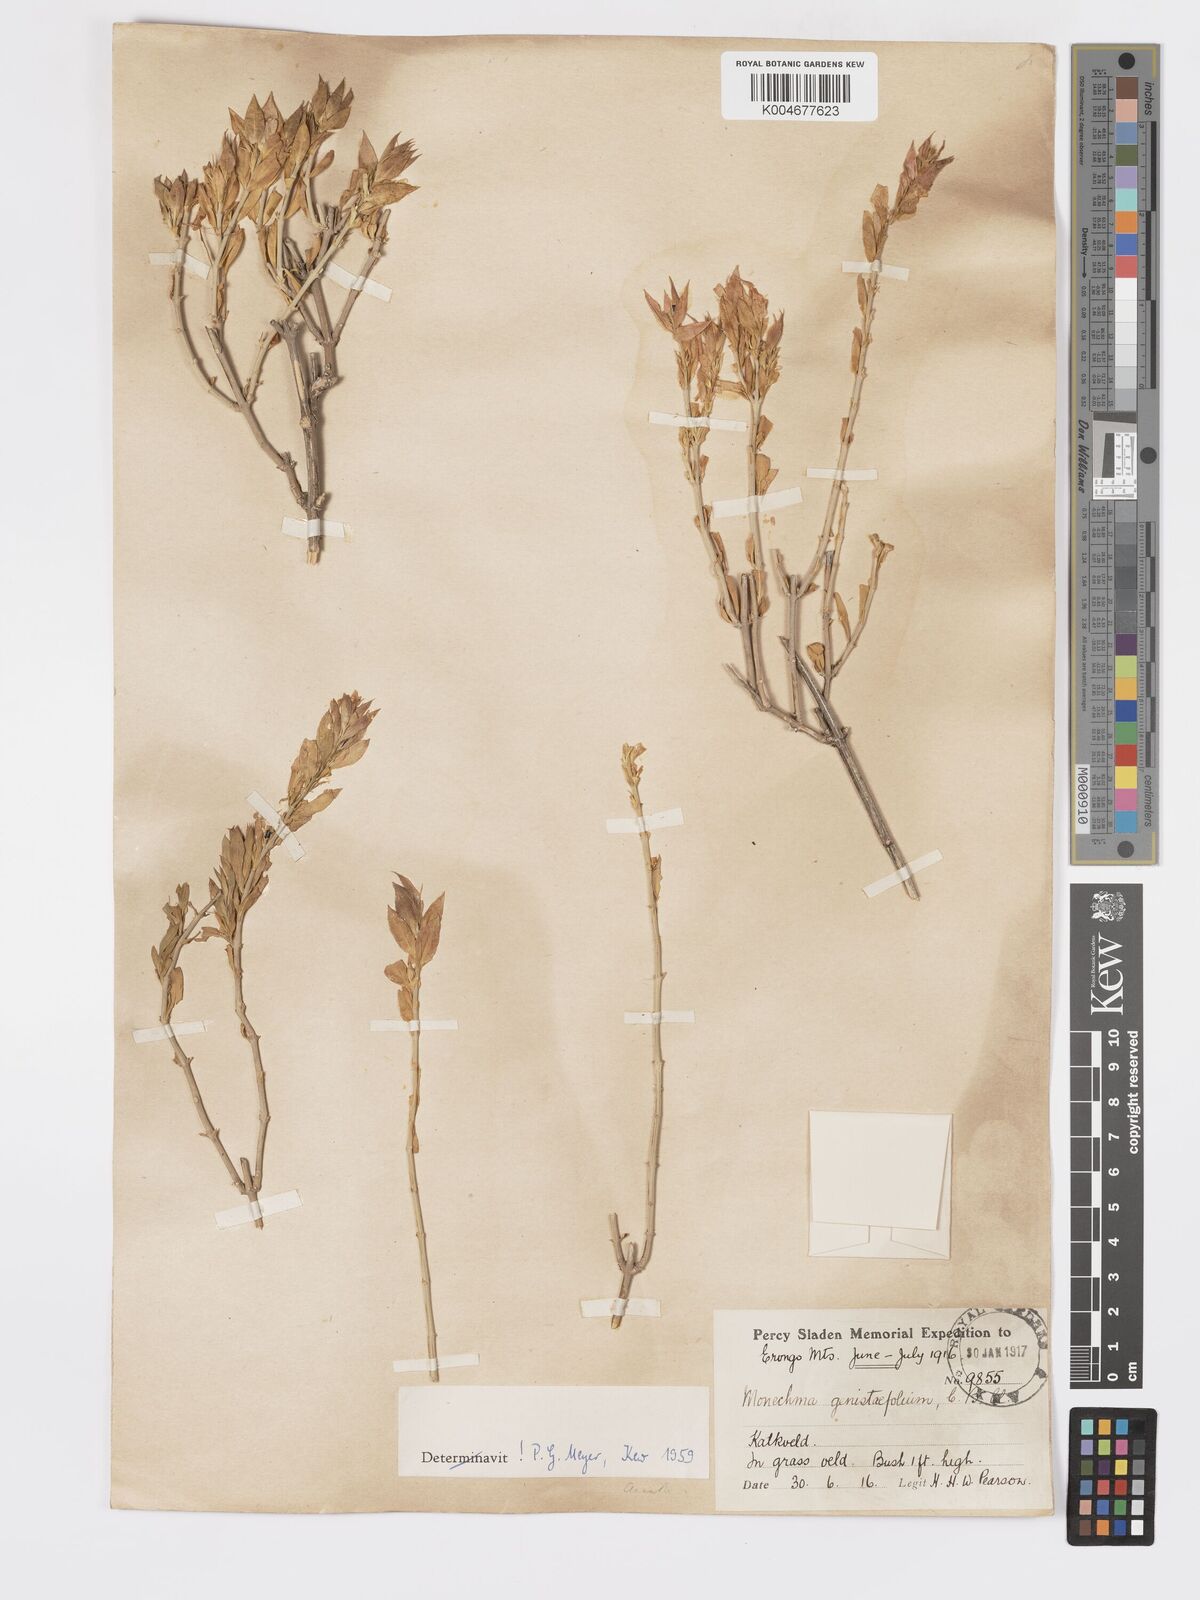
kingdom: Plantae
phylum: Tracheophyta
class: Magnoliopsida
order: Lamiales
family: Acanthaceae
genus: Pogonospermum
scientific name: Pogonospermum
